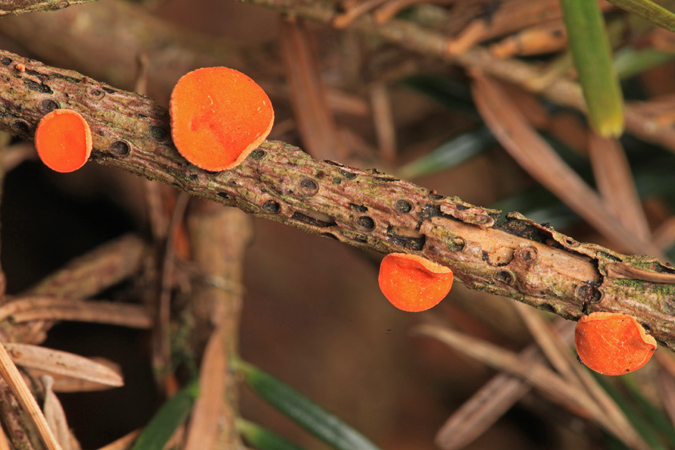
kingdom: Fungi
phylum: Ascomycota
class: Pezizomycetes
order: Pezizales
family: Sarcoscyphaceae
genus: Pithya
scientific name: Pithya vulgaris
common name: stor dukatbæger
